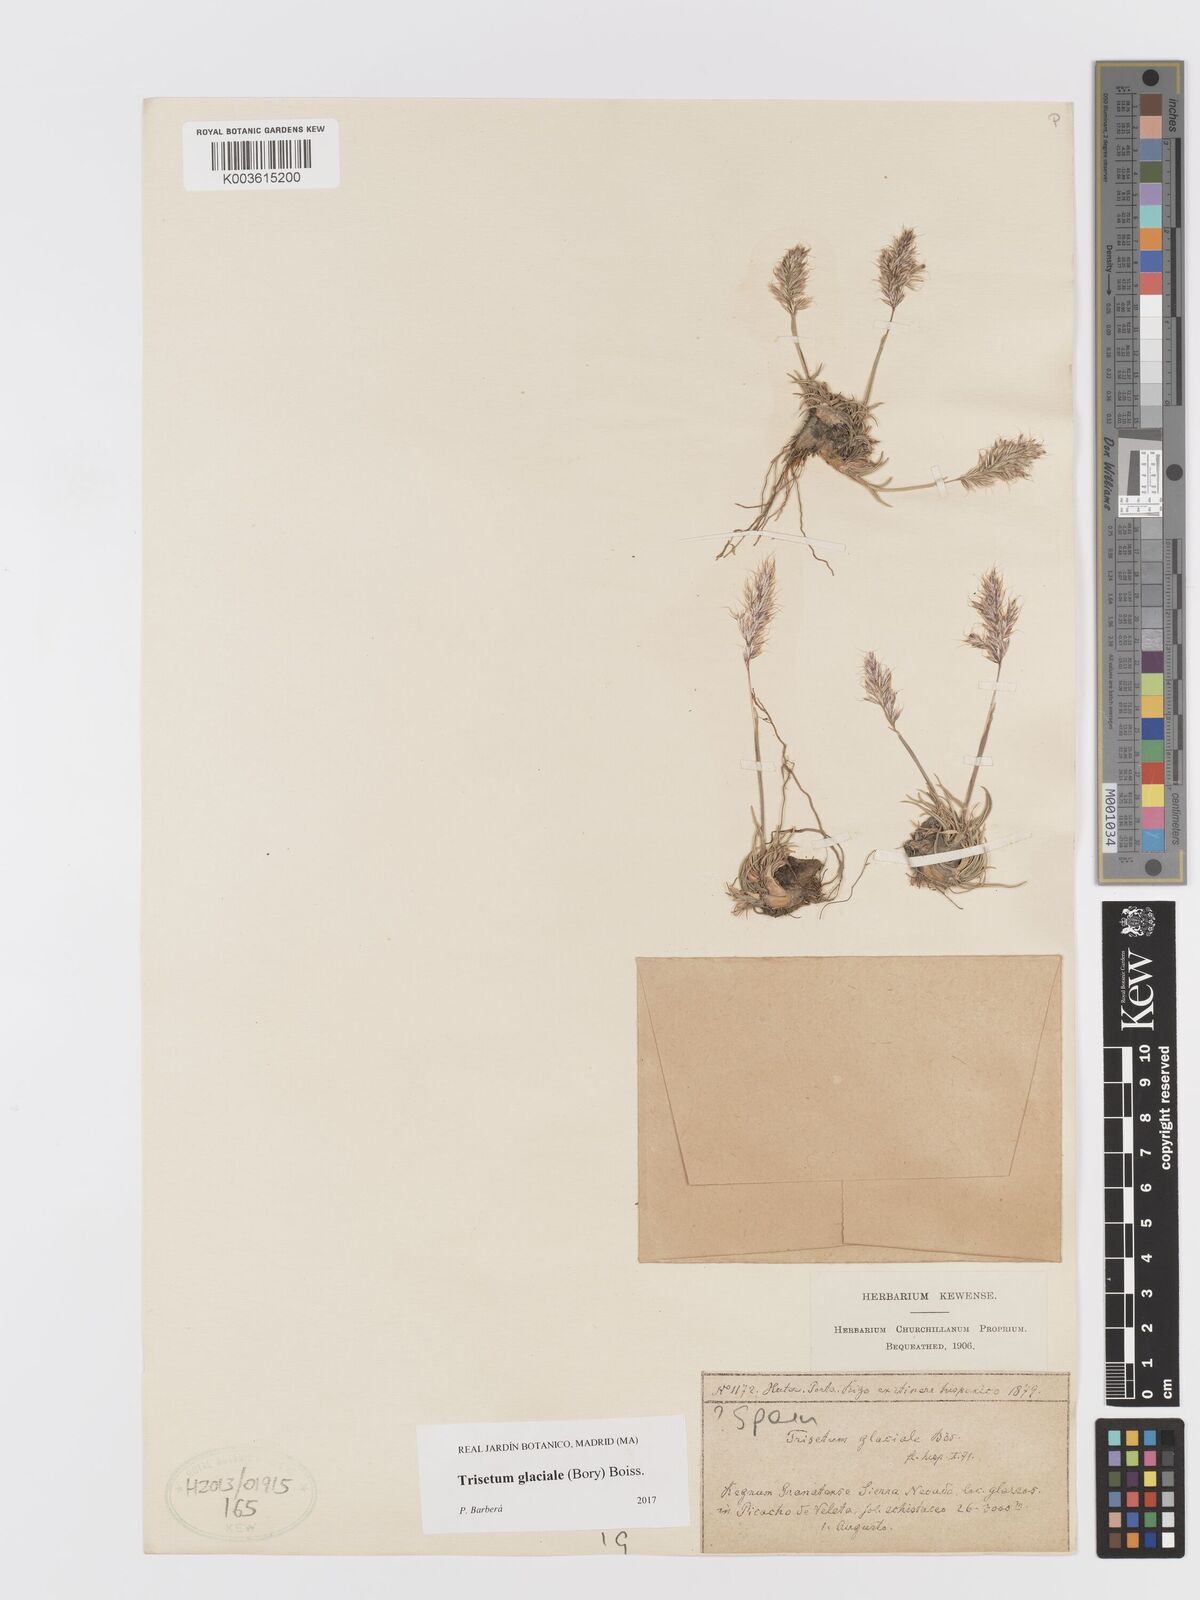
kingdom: Plantae
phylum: Tracheophyta
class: Liliopsida
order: Poales
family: Poaceae
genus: Acrospelion
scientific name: Acrospelion glaciale
